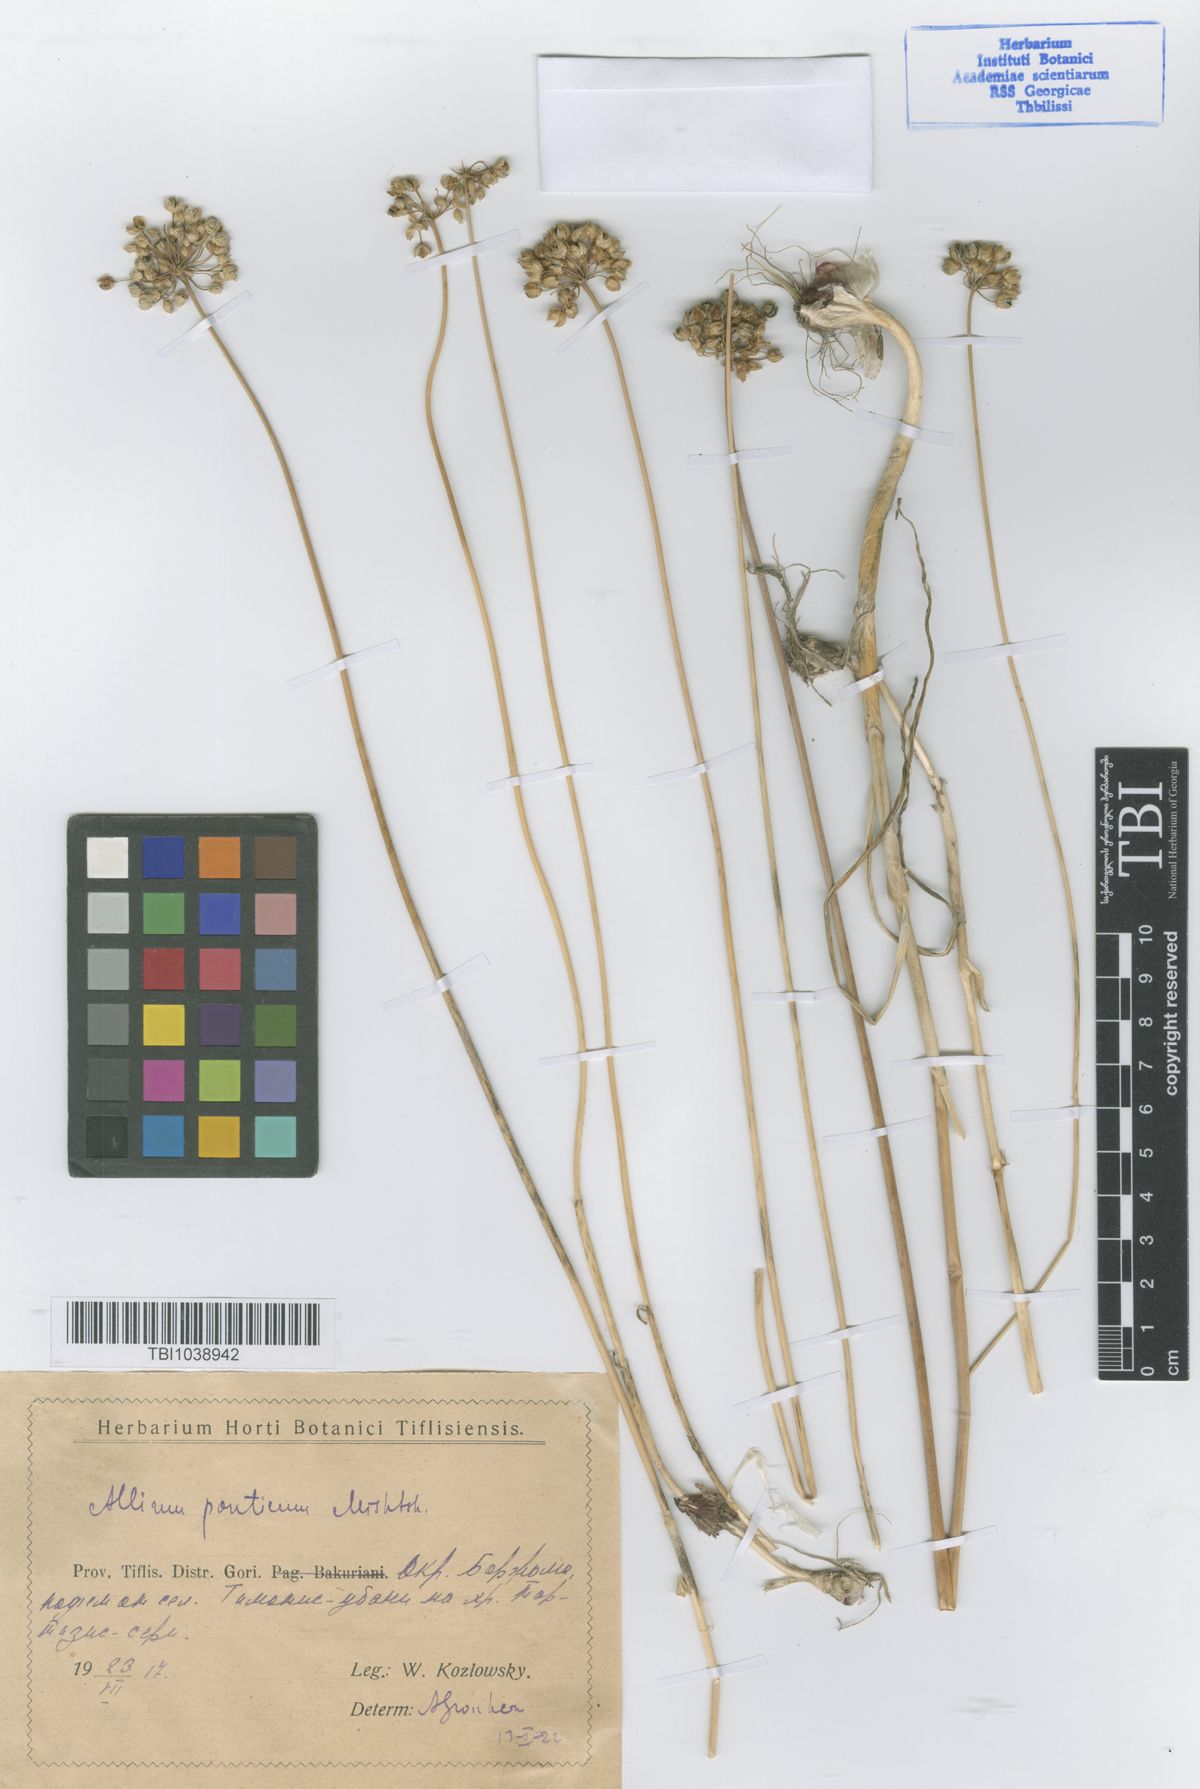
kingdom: Plantae
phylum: Tracheophyta
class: Liliopsida
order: Asparagales
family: Amaryllidaceae
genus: Allium
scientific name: Allium ponticum
